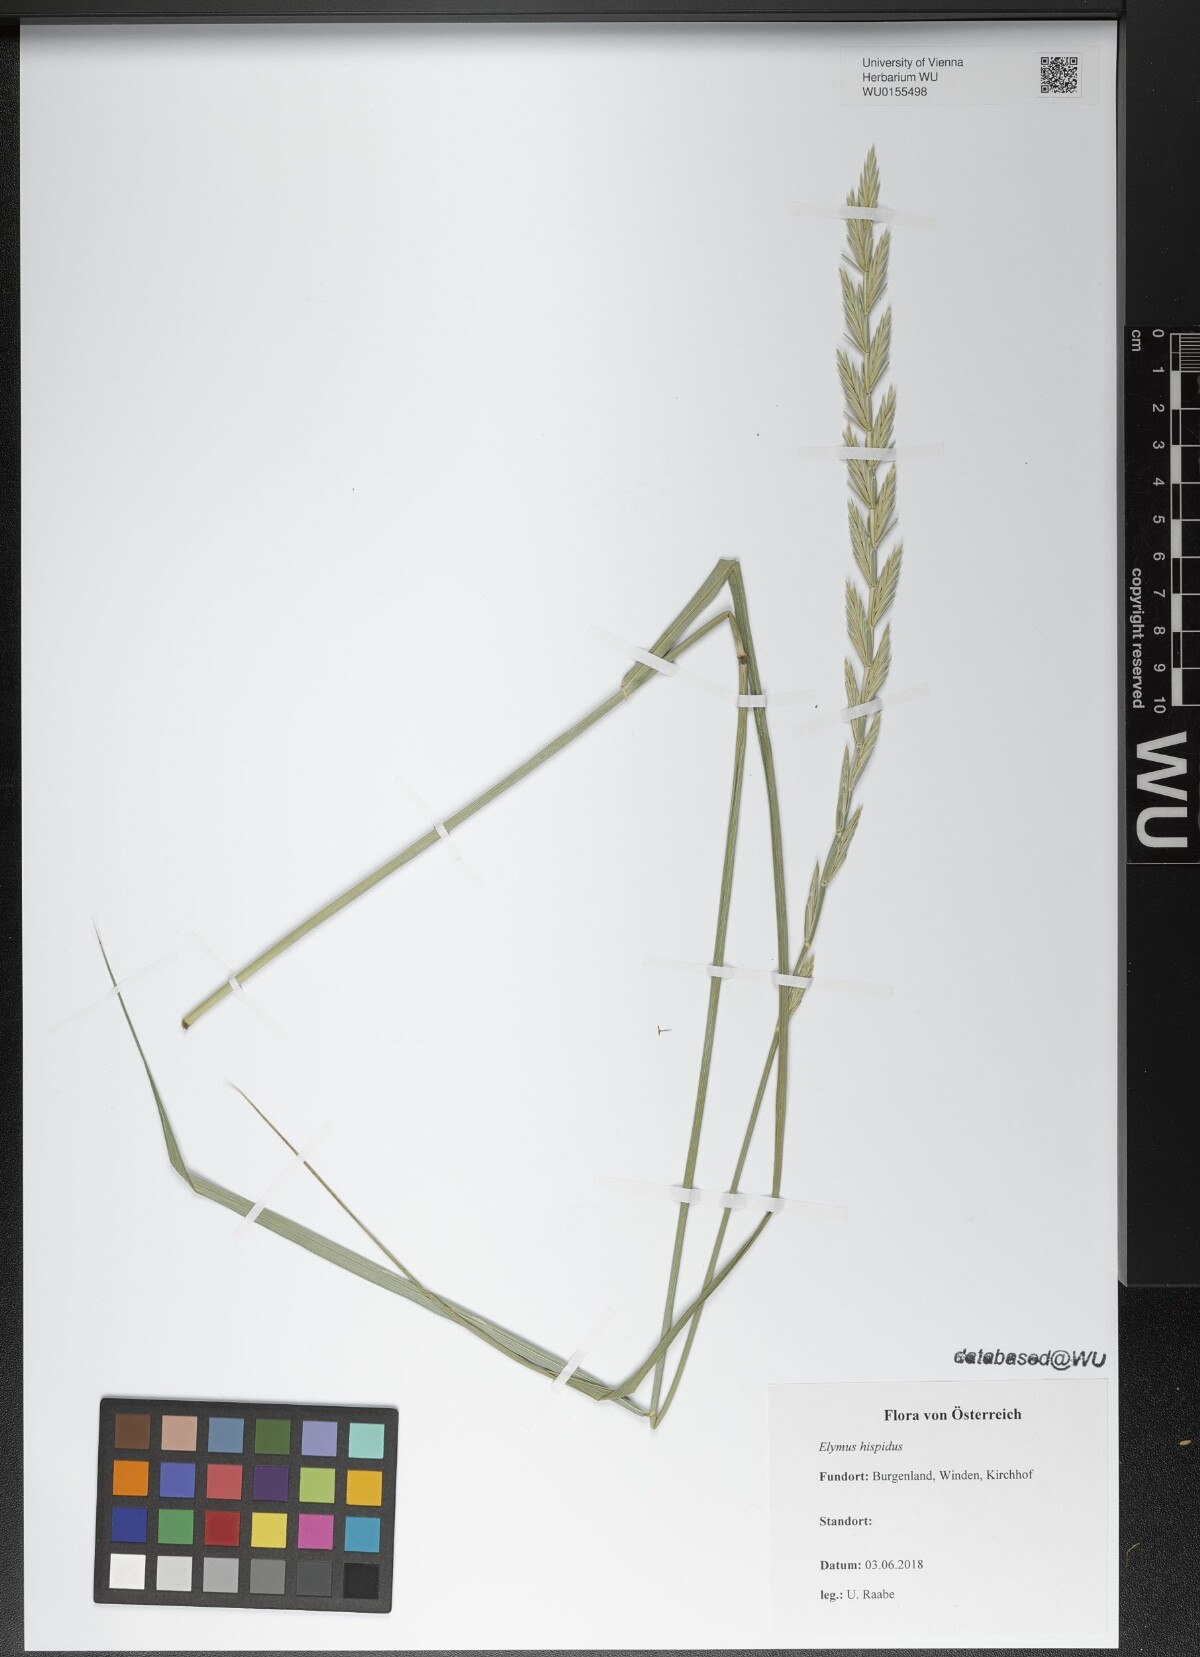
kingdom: Plantae
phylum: Tracheophyta
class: Liliopsida
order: Poales
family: Poaceae
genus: Thinopyrum
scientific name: Thinopyrum intermedium
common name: Intermediate wheatgrass
